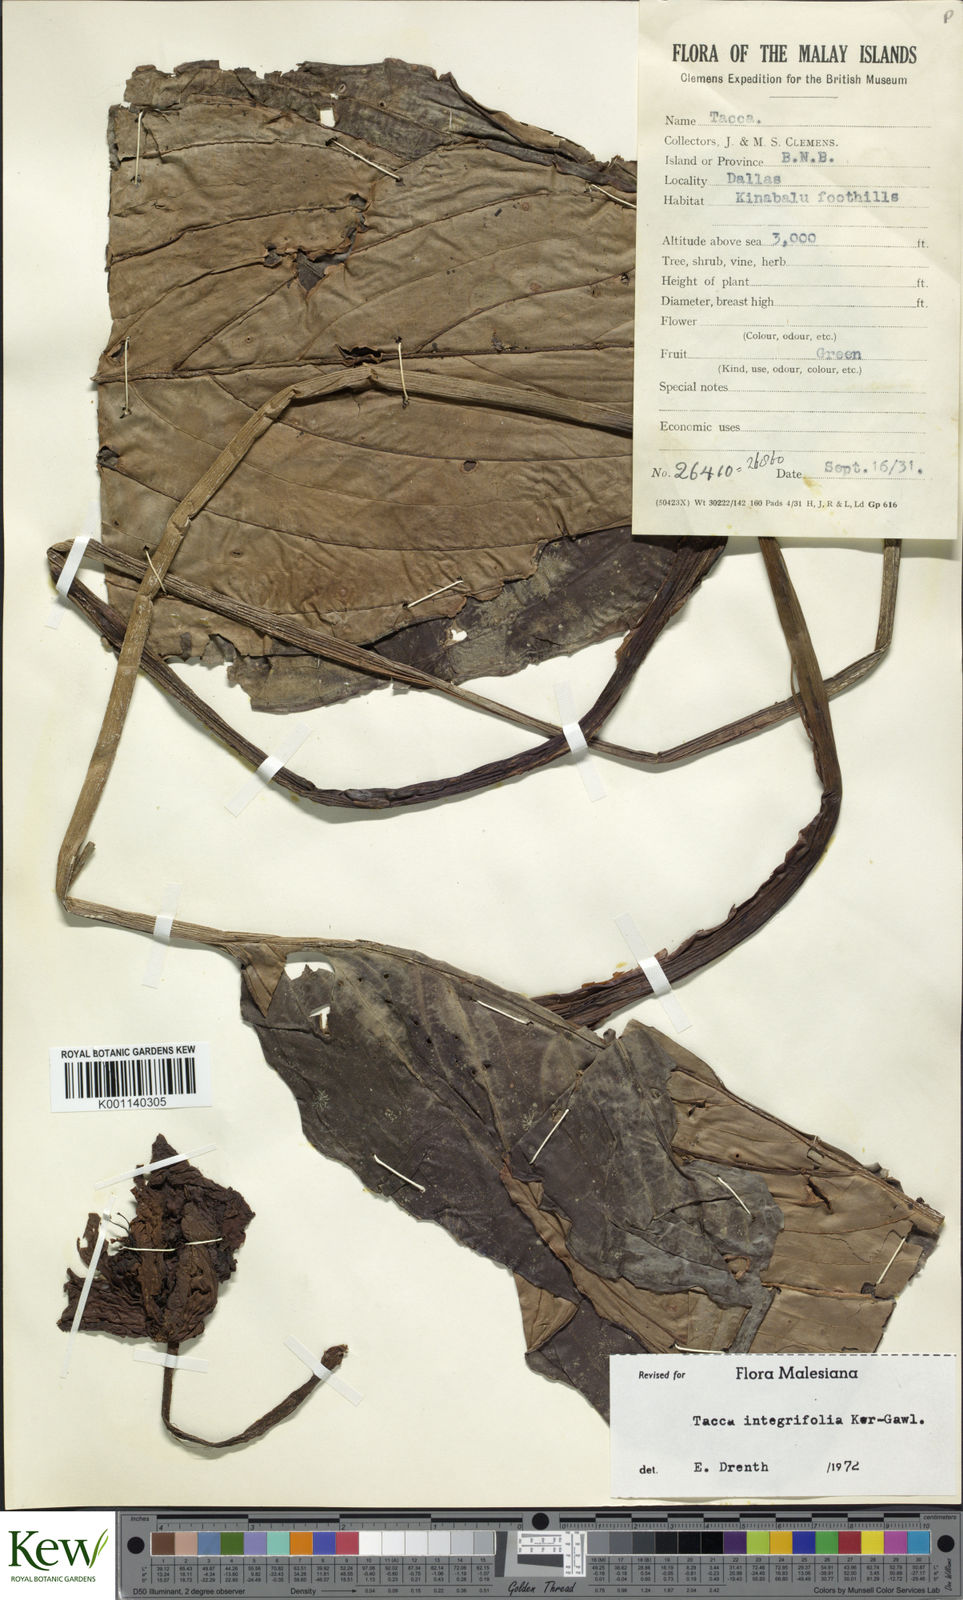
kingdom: Plantae
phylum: Tracheophyta
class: Liliopsida
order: Dioscoreales
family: Dioscoreaceae
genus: Tacca
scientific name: Tacca integrifolia
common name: Batplant
